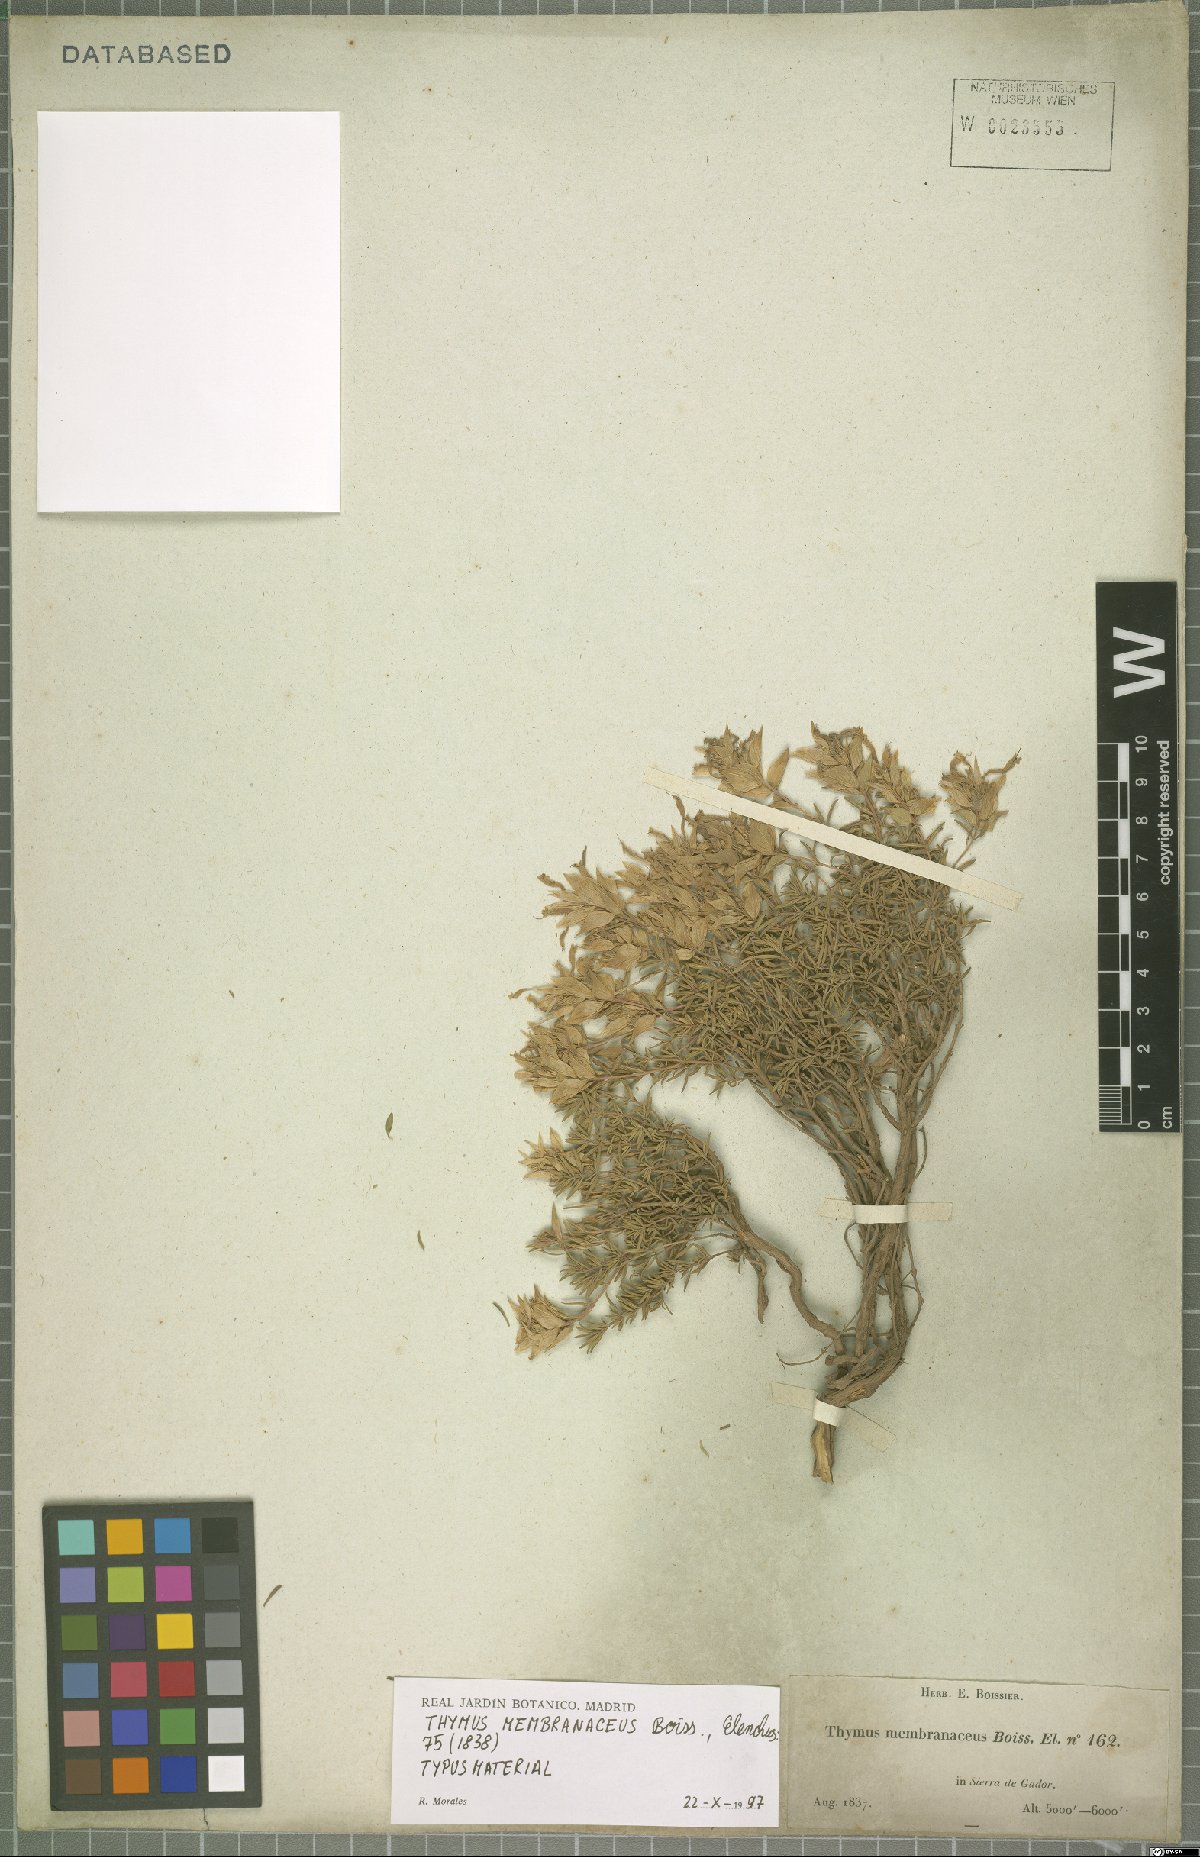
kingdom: Plantae
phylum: Tracheophyta
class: Magnoliopsida
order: Lamiales
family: Lamiaceae
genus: Thymus
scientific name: Thymus membranaceus
